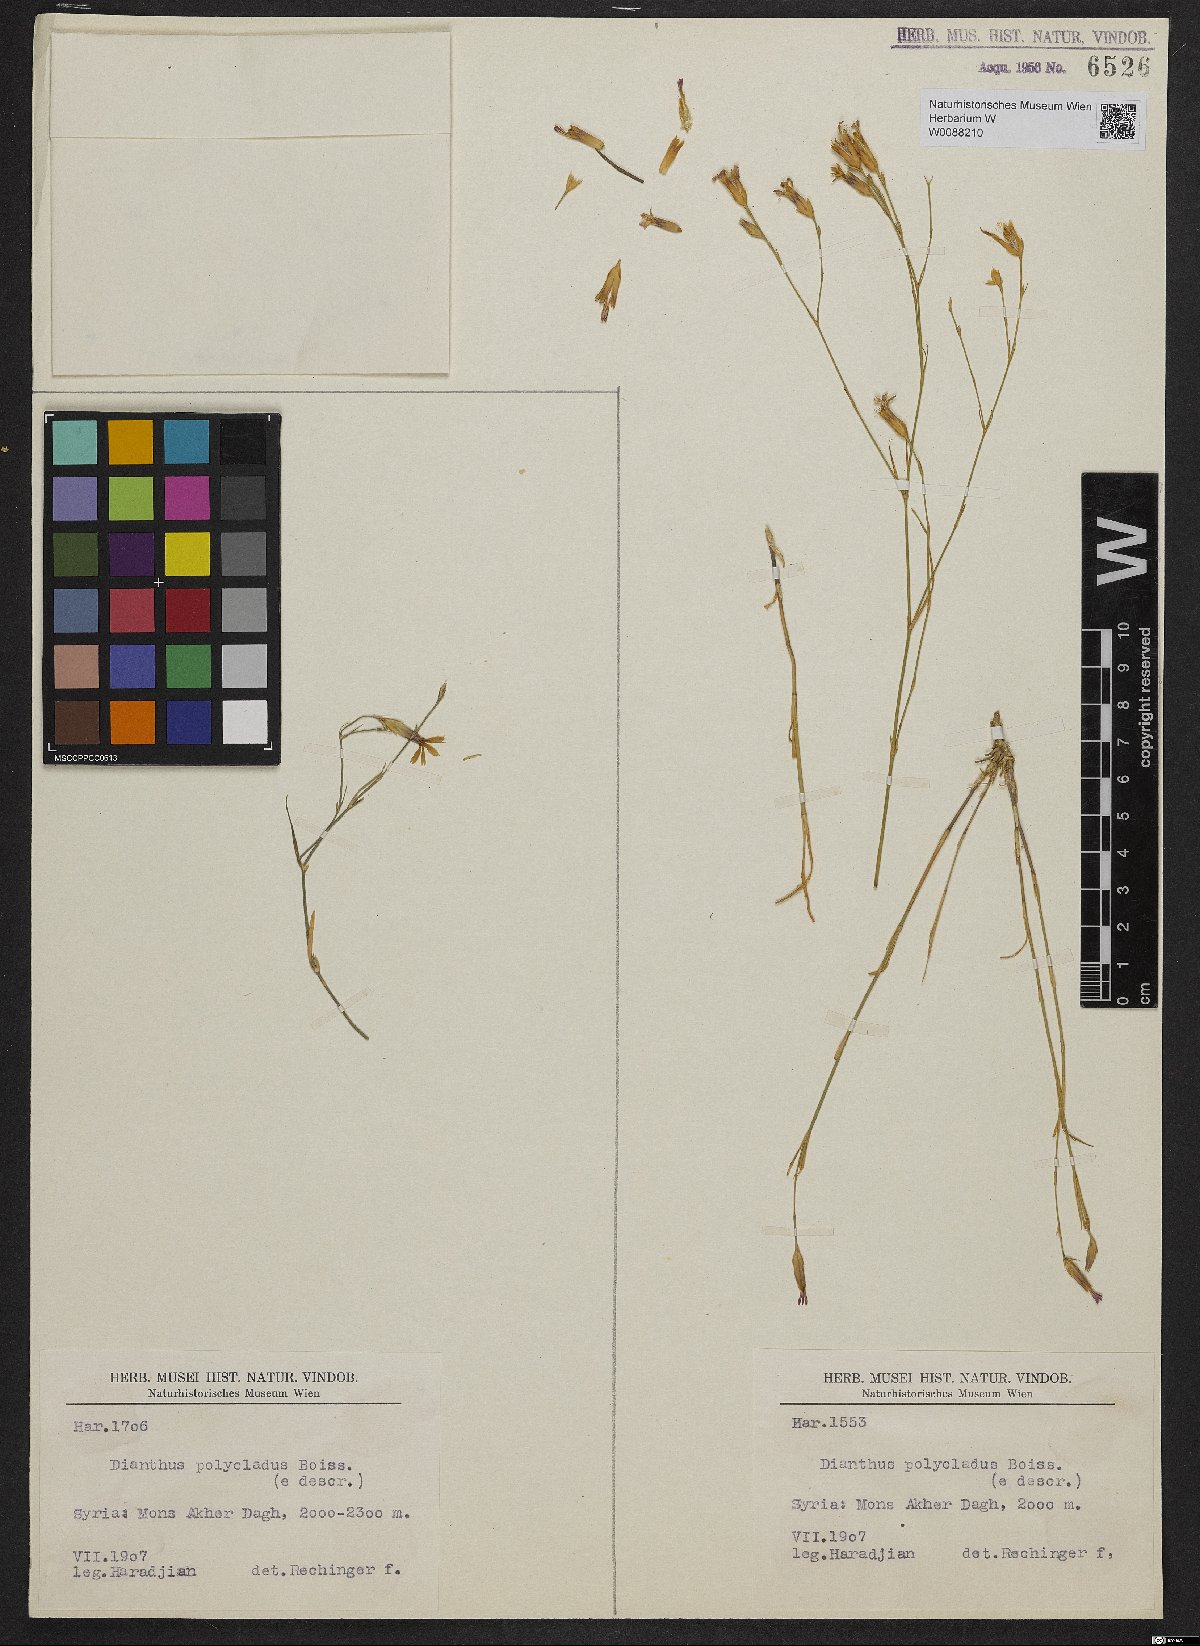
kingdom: Plantae
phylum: Tracheophyta
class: Magnoliopsida
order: Caryophyllales
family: Caryophyllaceae
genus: Dianthus
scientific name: Dianthus strictus
